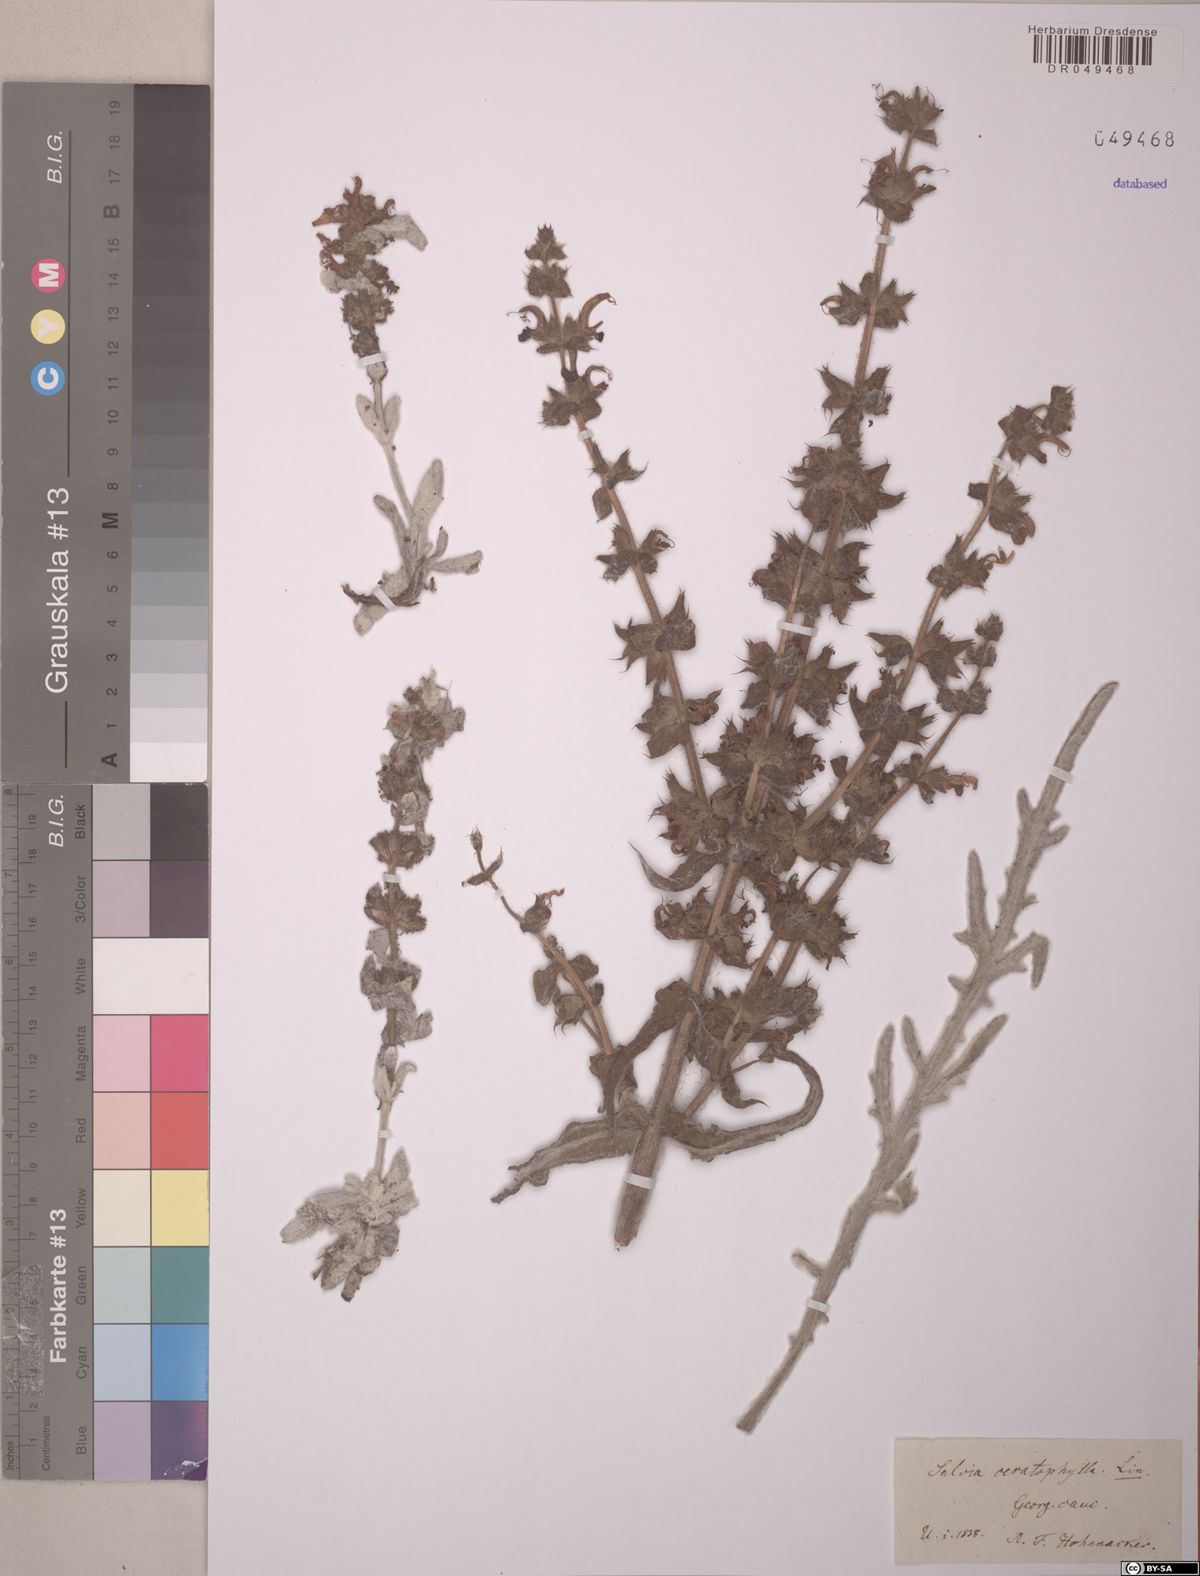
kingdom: Plantae
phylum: Tracheophyta
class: Magnoliopsida
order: Lamiales
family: Lamiaceae
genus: Salvia
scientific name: Salvia ceratophylla
